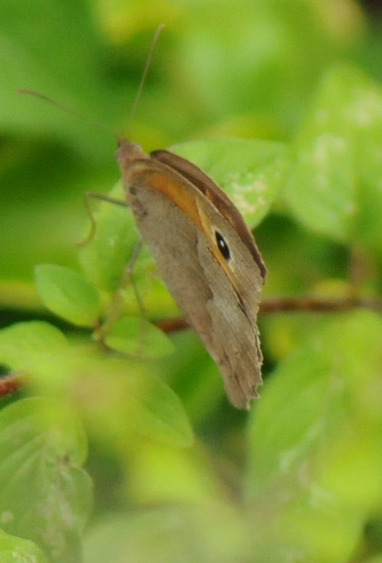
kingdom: Animalia
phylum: Arthropoda
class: Insecta
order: Lepidoptera
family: Nymphalidae
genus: Maniola
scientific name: Maniola jurtina
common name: Græsrandøje
